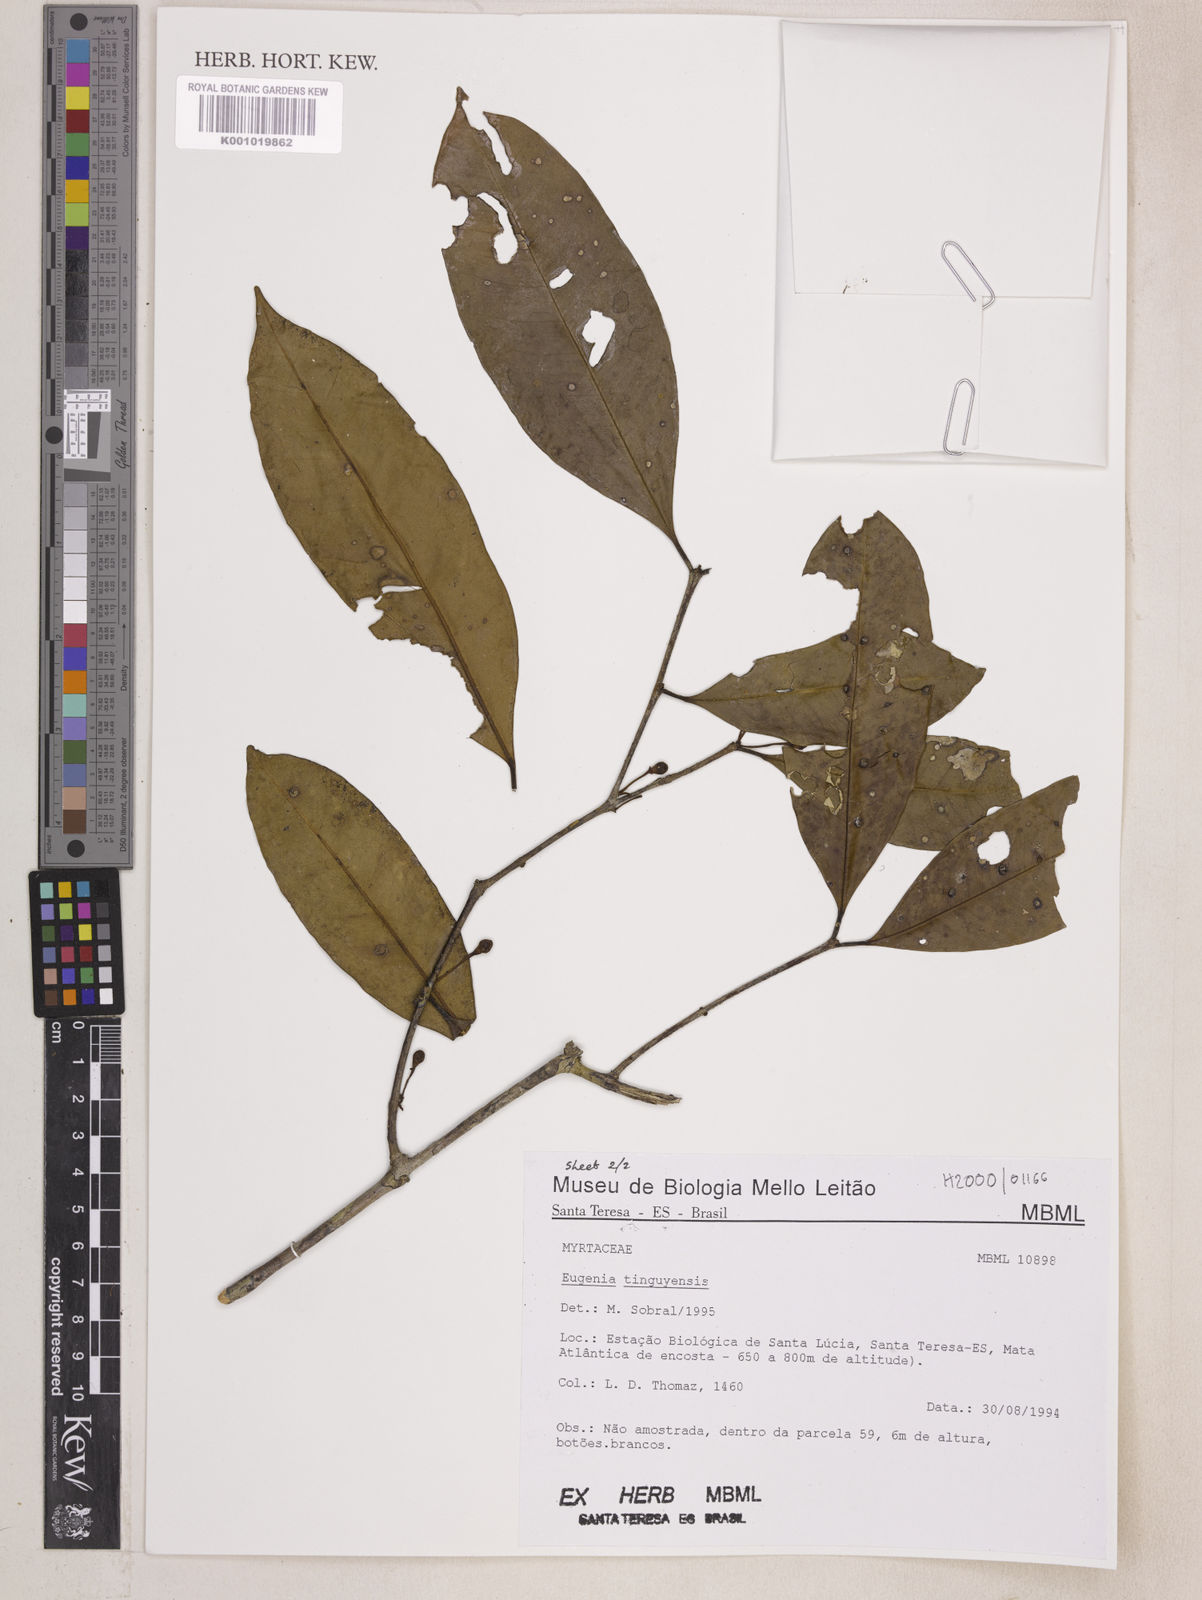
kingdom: Plantae
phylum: Tracheophyta
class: Magnoliopsida
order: Myrtales
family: Myrtaceae
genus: Eugenia
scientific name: Eugenia pisiformis
